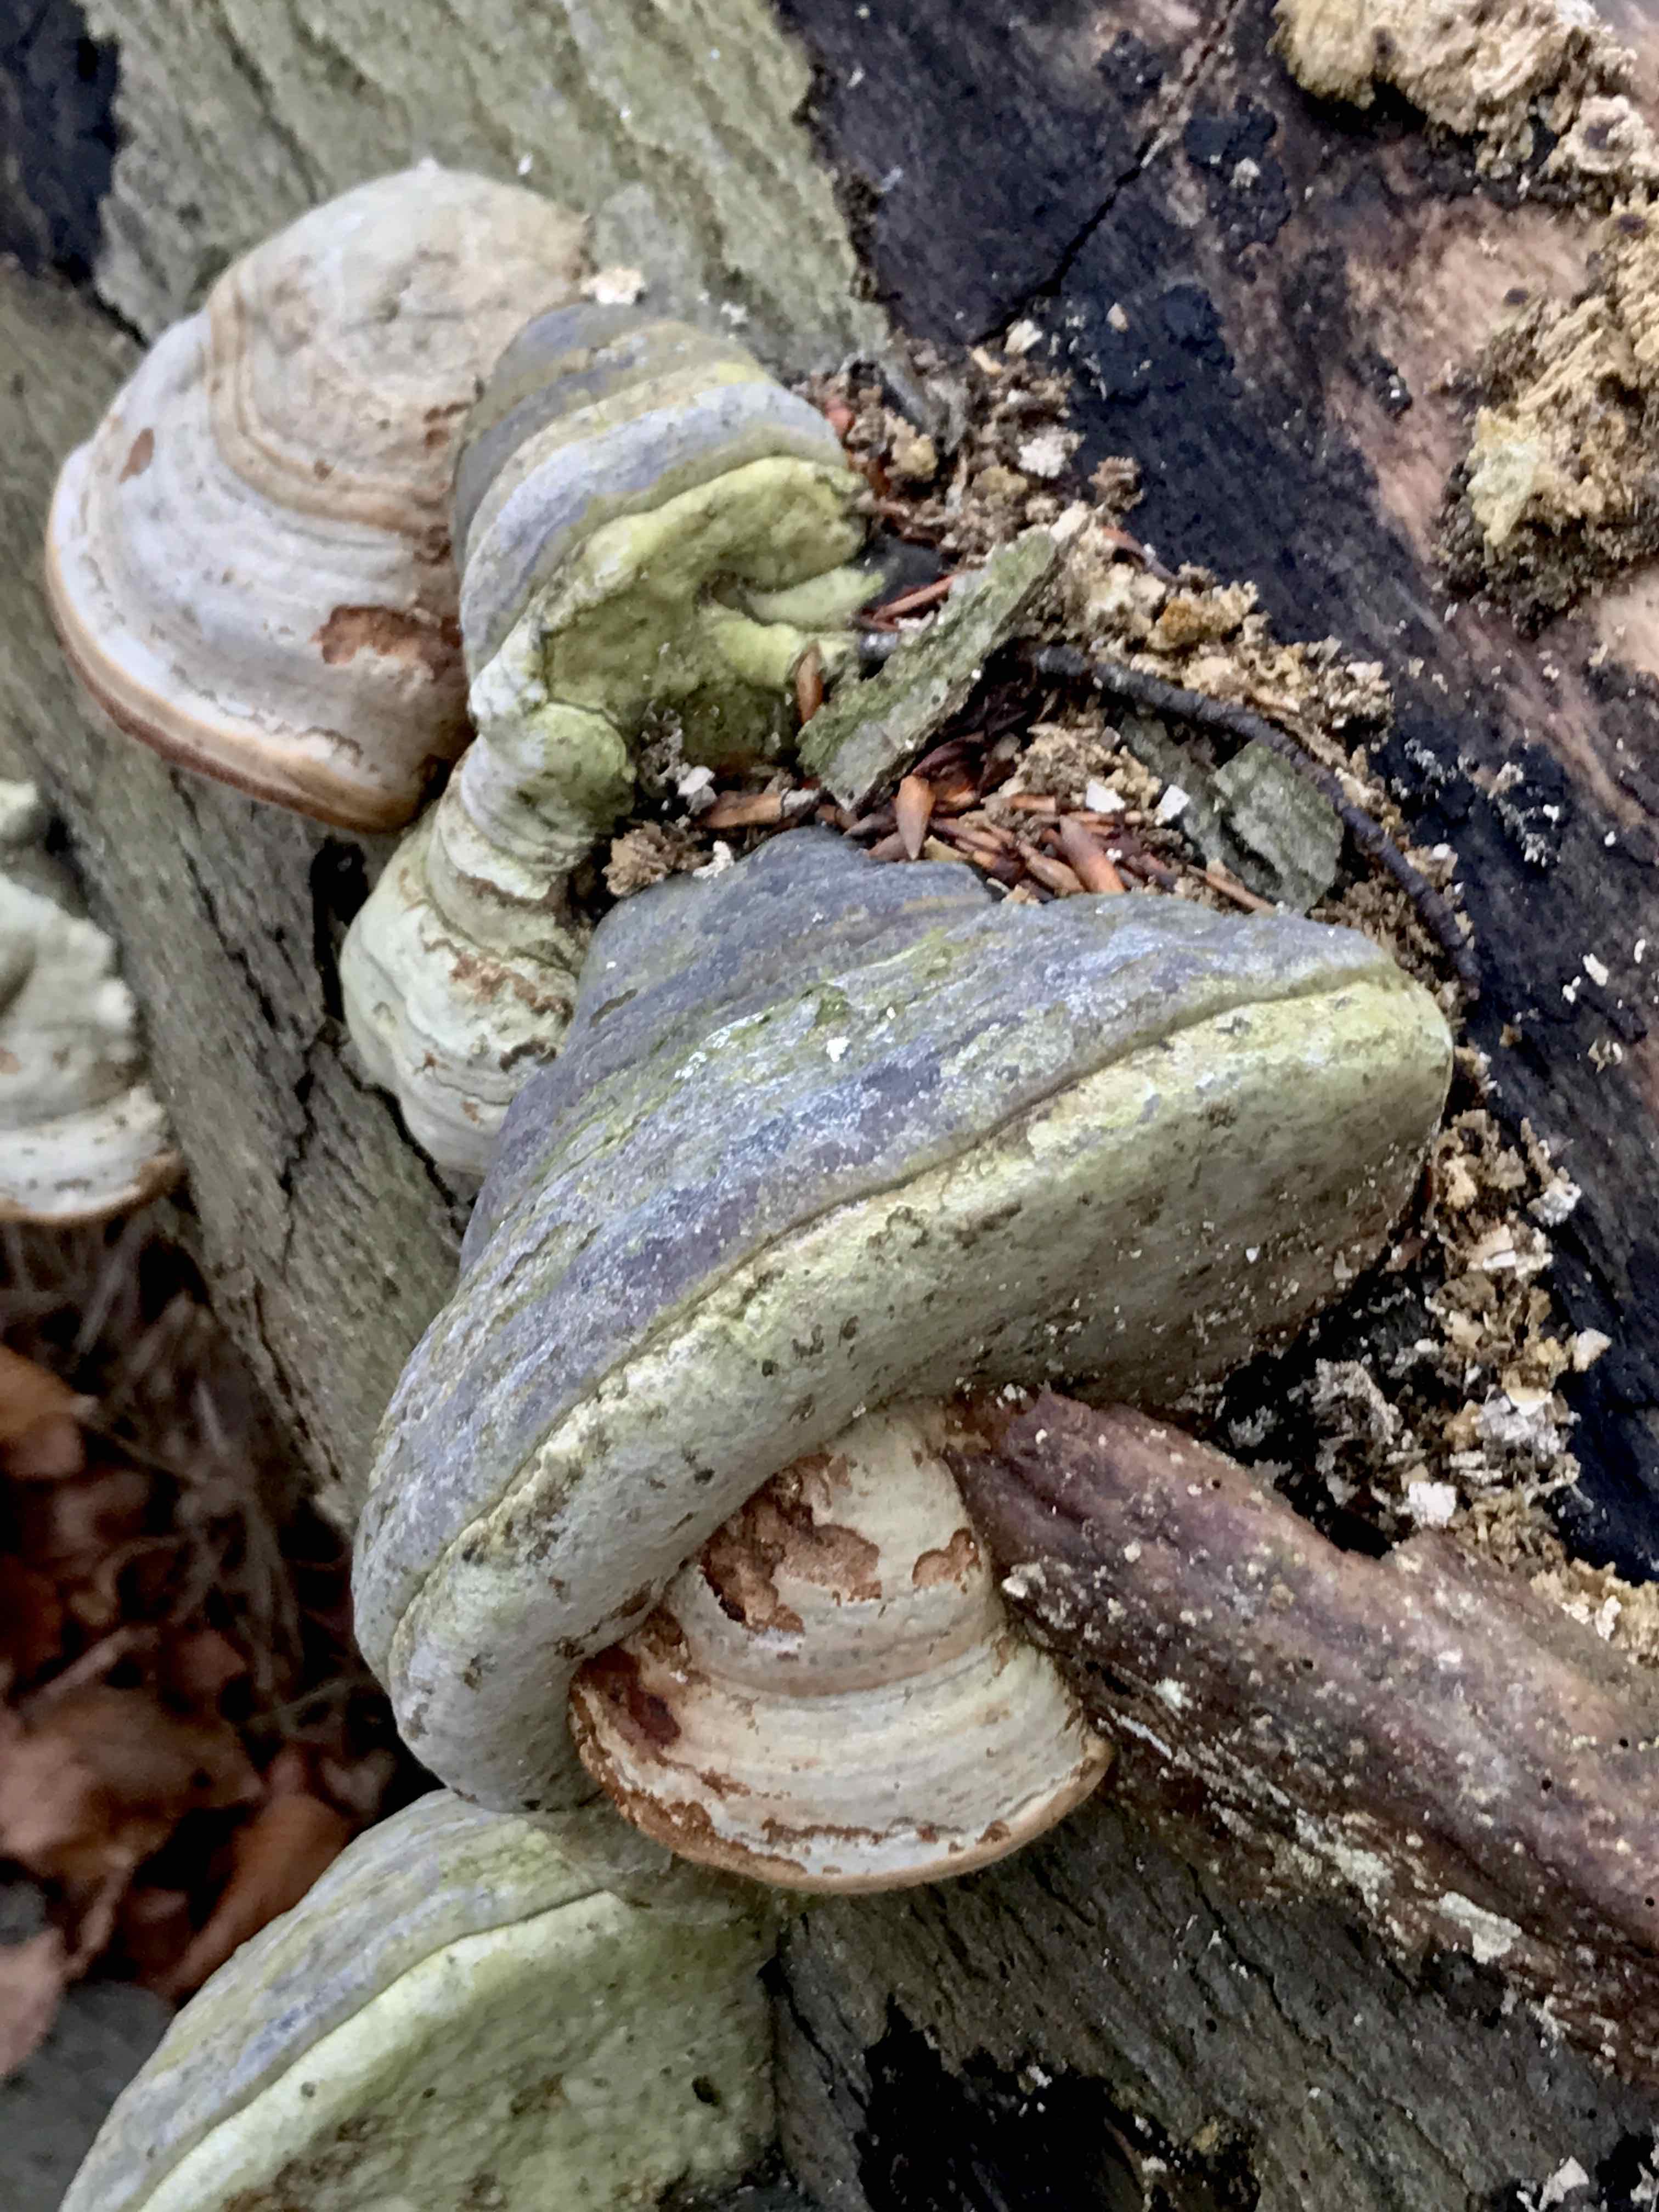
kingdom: Fungi
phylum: Basidiomycota
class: Agaricomycetes
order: Polyporales
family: Polyporaceae
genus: Fomes
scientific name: Fomes fomentarius
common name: tøndersvamp
